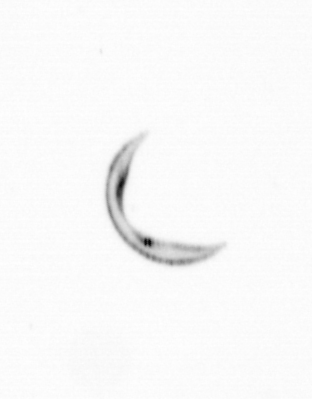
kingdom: Chromista
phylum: Ochrophyta
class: Bacillariophyceae
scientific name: Bacillariophyceae
